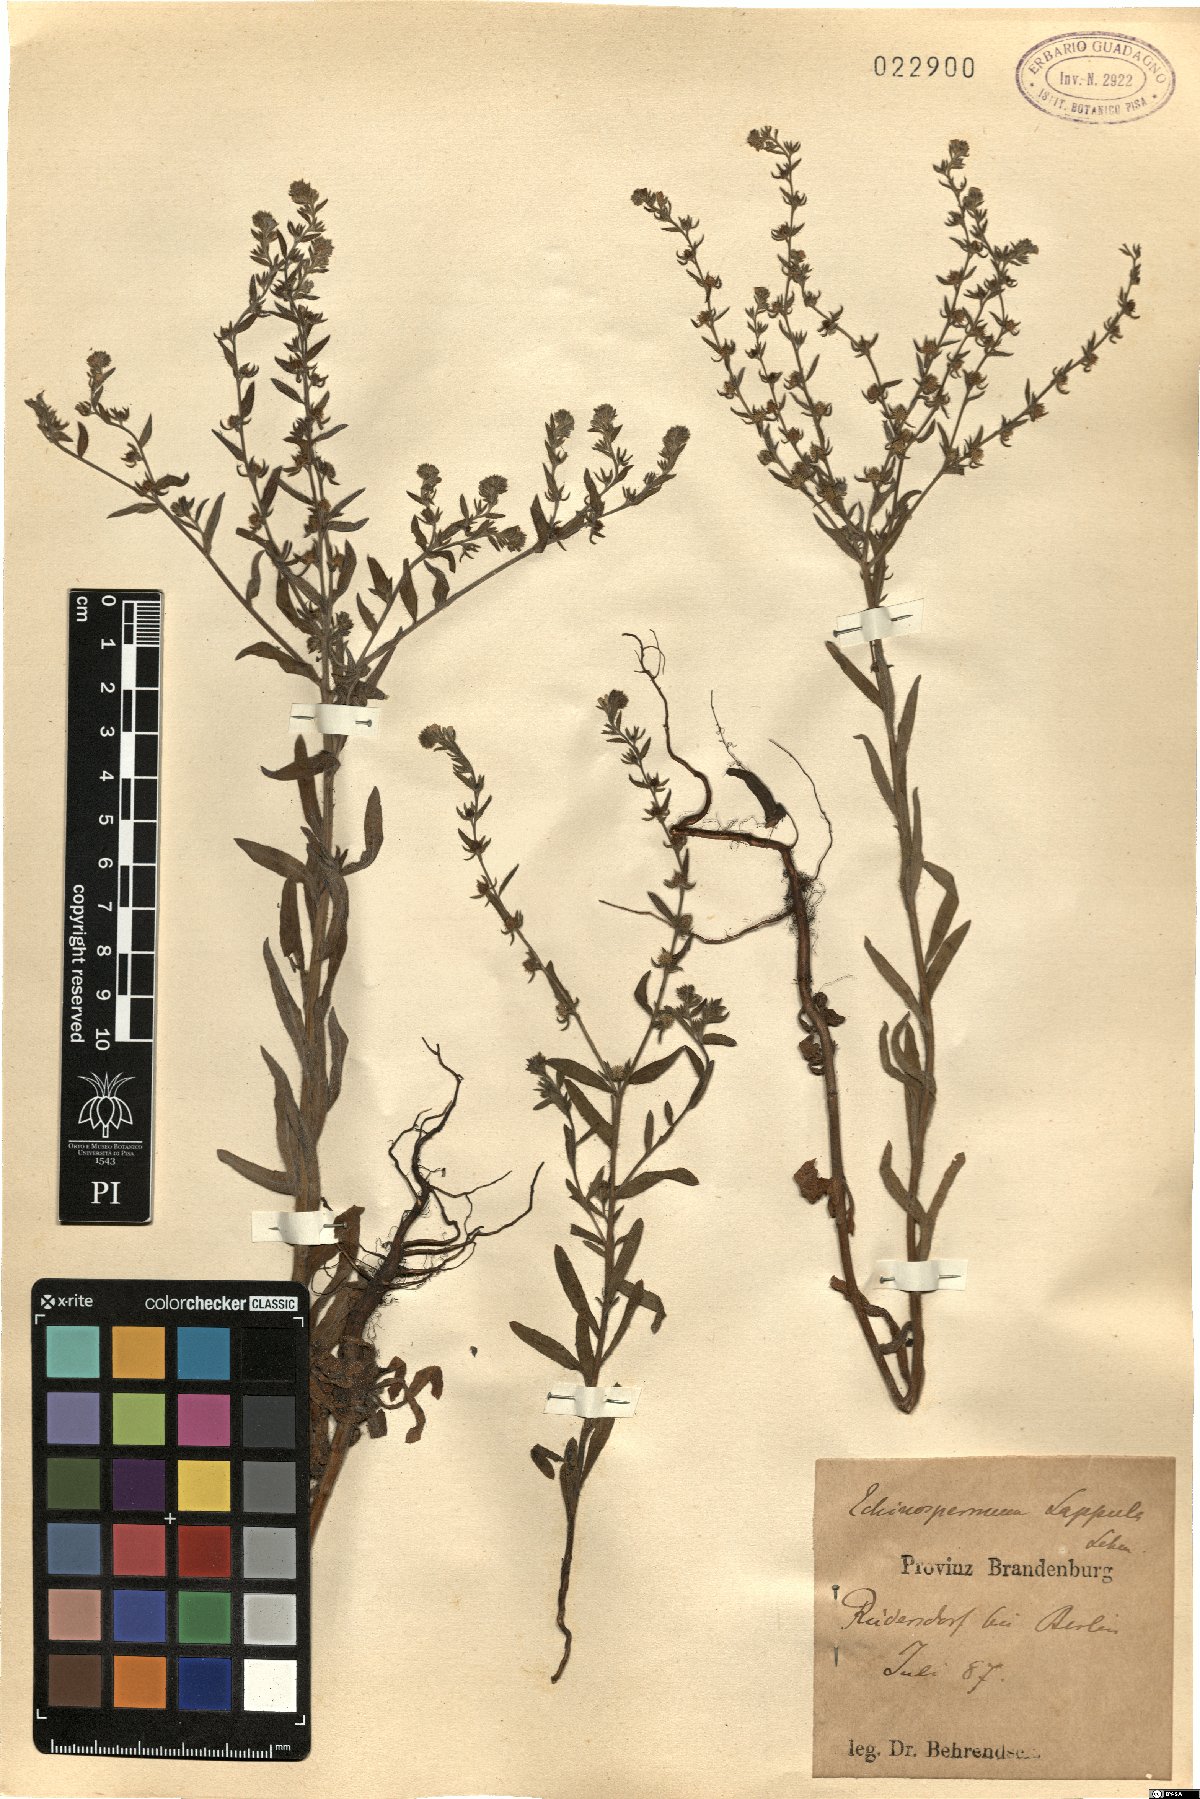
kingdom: Plantae
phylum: Tracheophyta
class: Magnoliopsida
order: Boraginales
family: Boraginaceae
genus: Lappula
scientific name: Lappula squarrosa
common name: European stickseed
